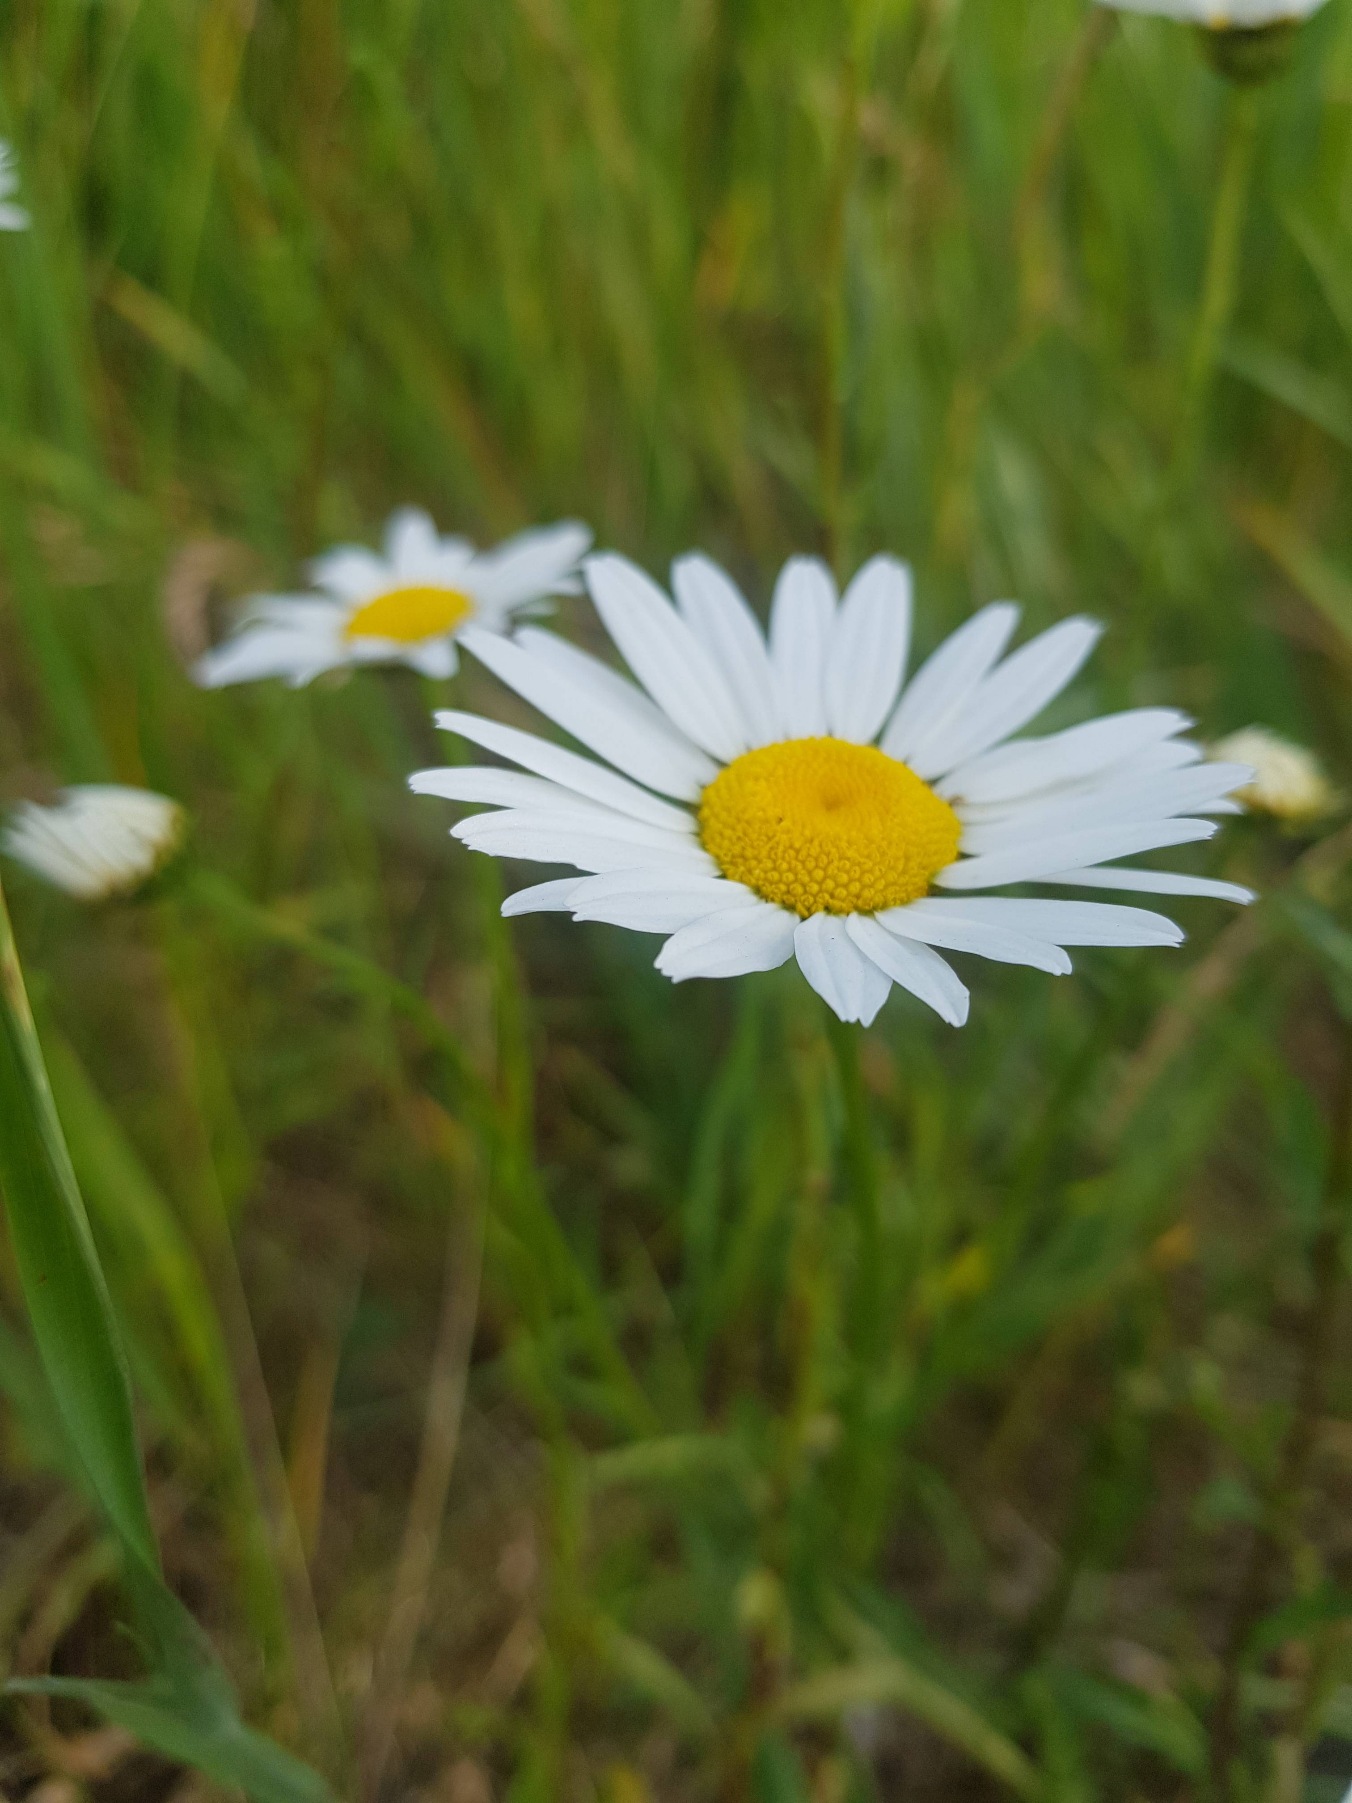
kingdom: Plantae
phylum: Tracheophyta
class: Magnoliopsida
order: Asterales
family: Asteraceae
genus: Leucanthemum
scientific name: Leucanthemum vulgare
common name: Hvid okseøje
